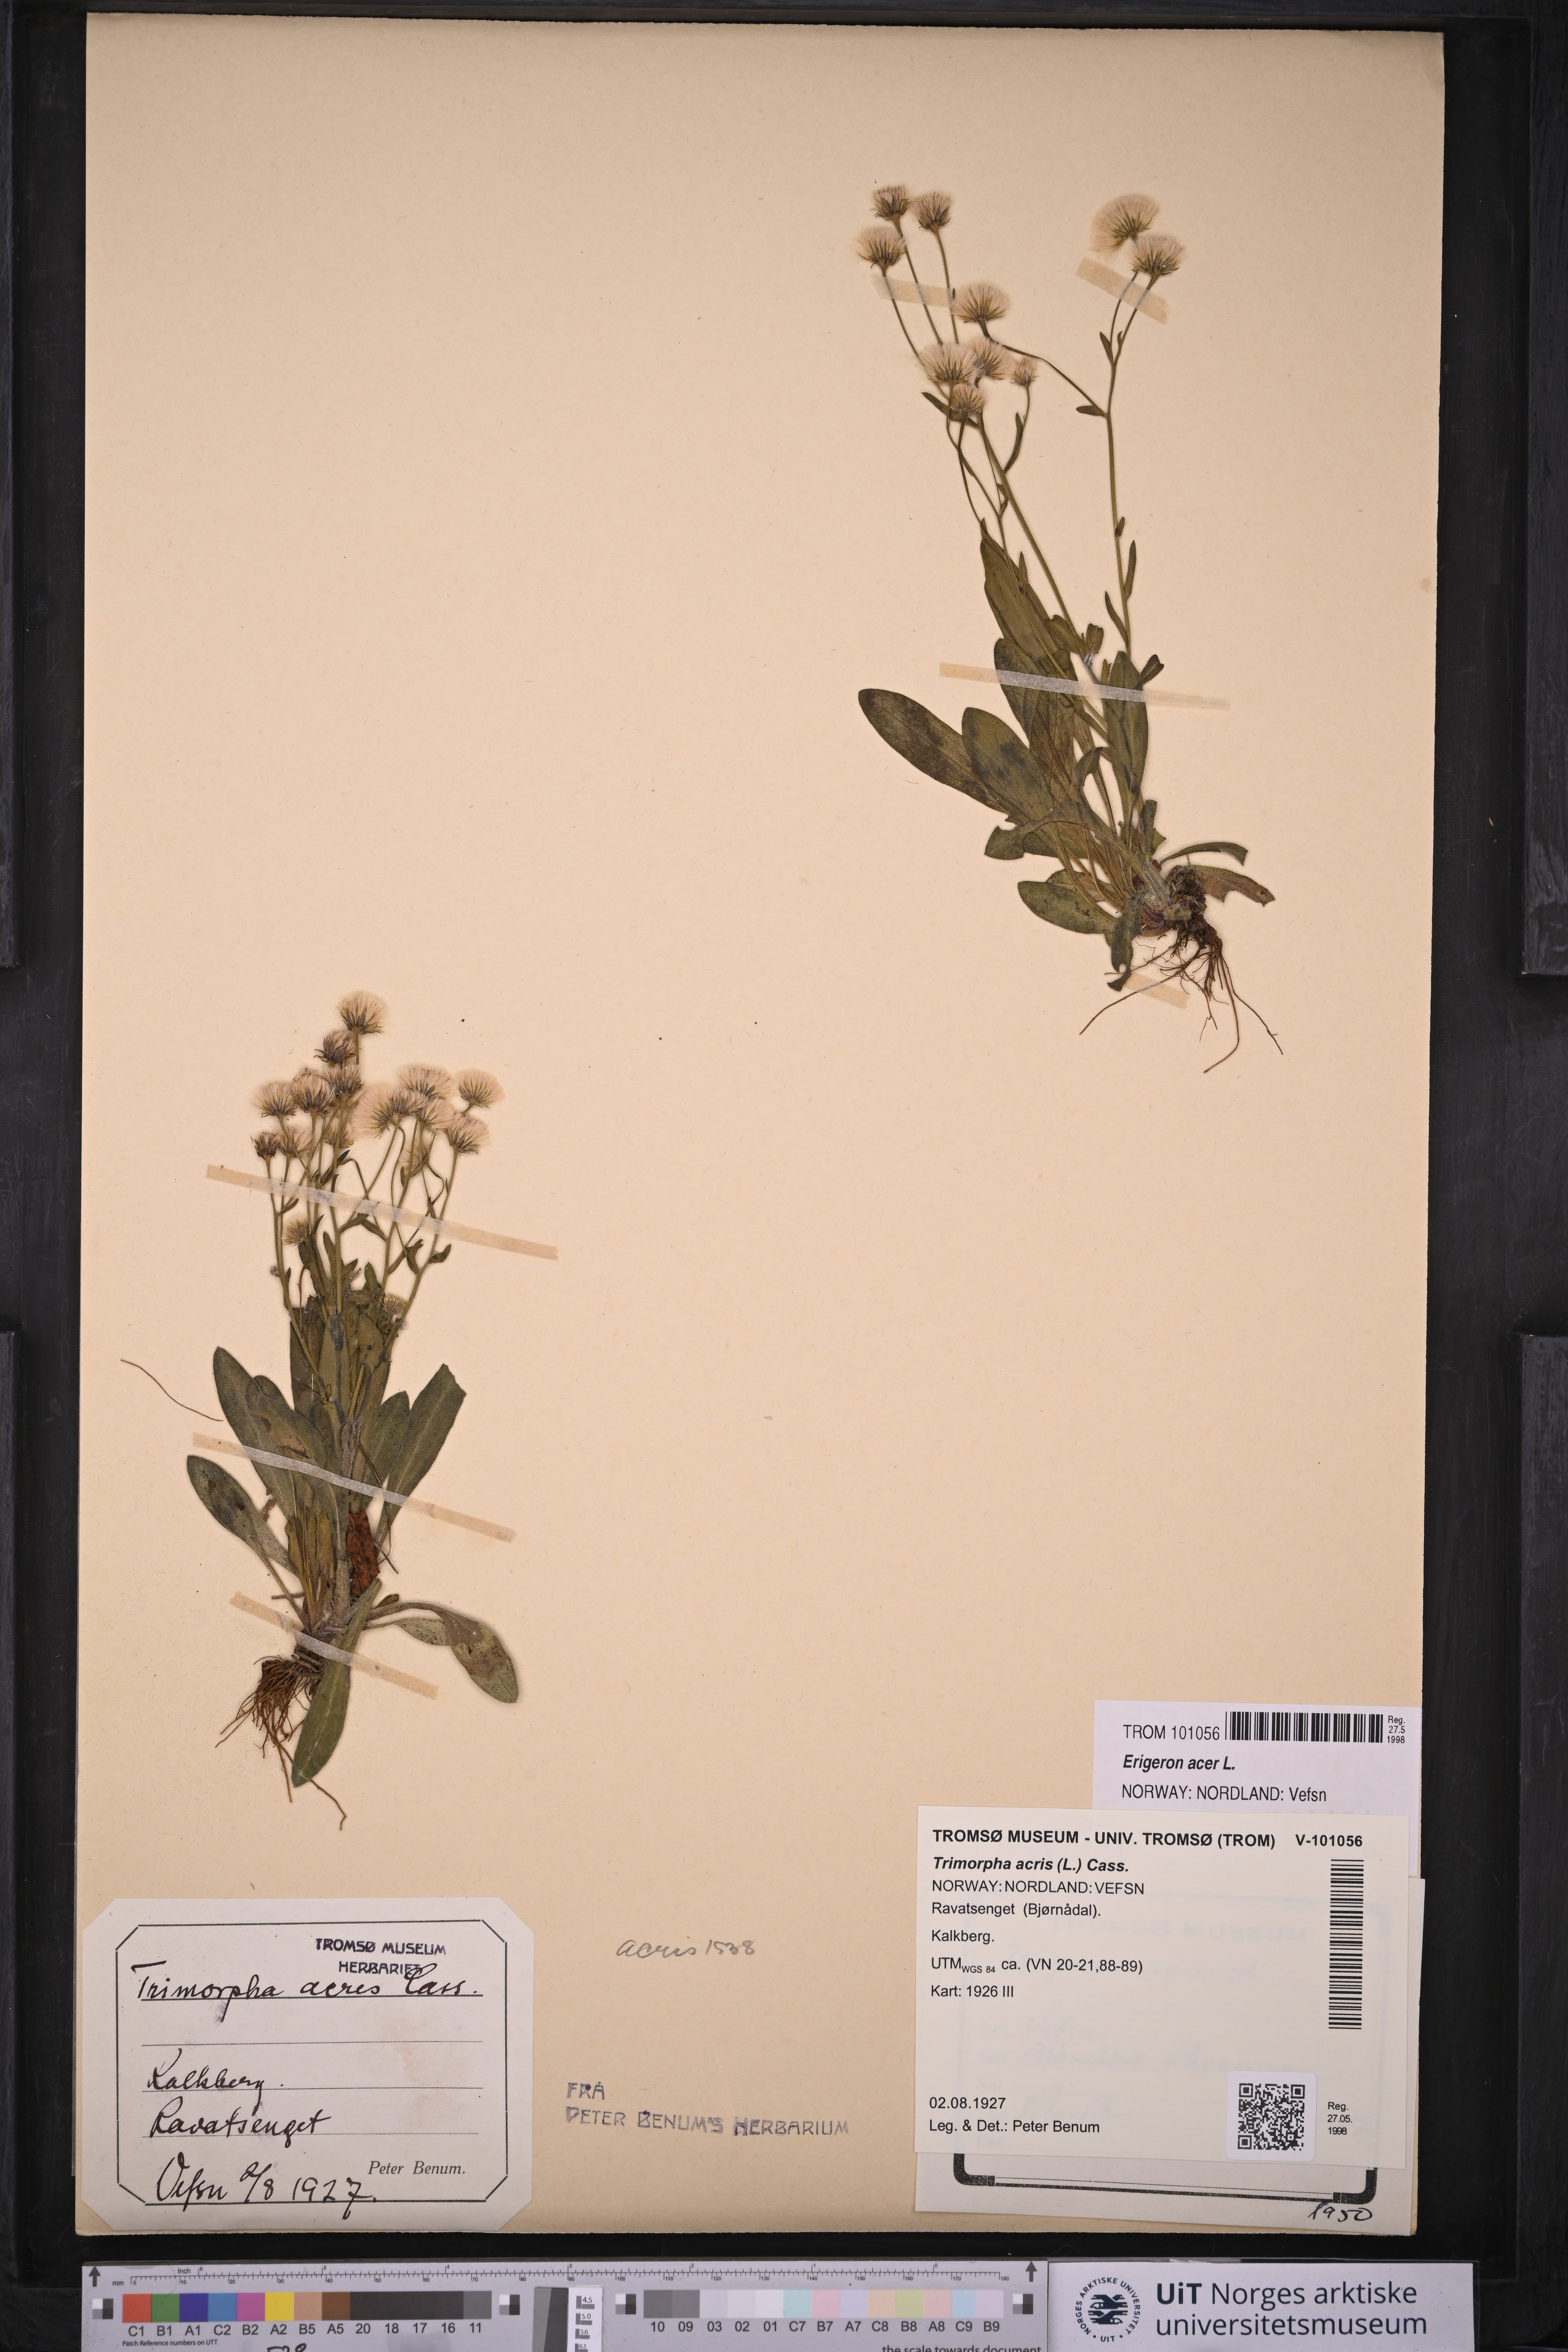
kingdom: Plantae
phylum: Tracheophyta
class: Magnoliopsida
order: Asterales
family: Asteraceae
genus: Erigeron
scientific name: Erigeron acris
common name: Blue fleabane
